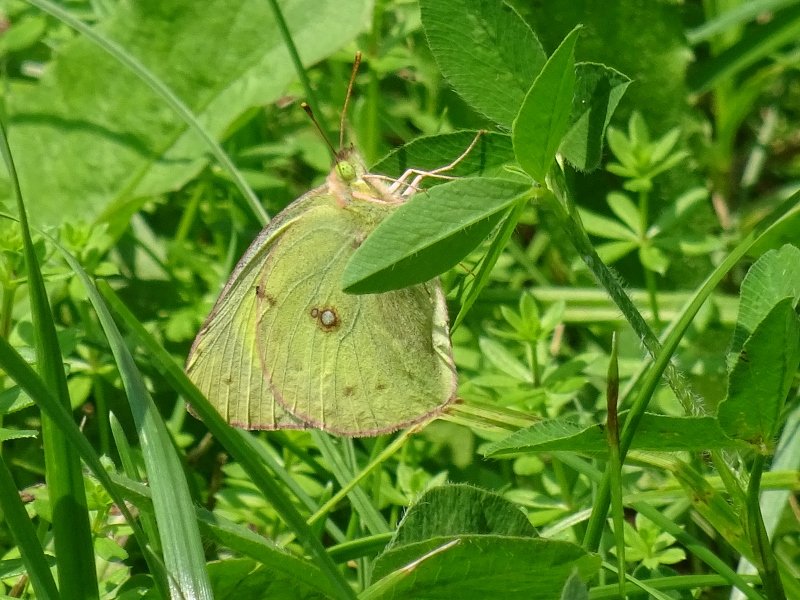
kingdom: Animalia
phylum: Arthropoda
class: Insecta
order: Lepidoptera
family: Pieridae
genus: Colias
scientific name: Colias philodice
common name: Clouded Sulphur
